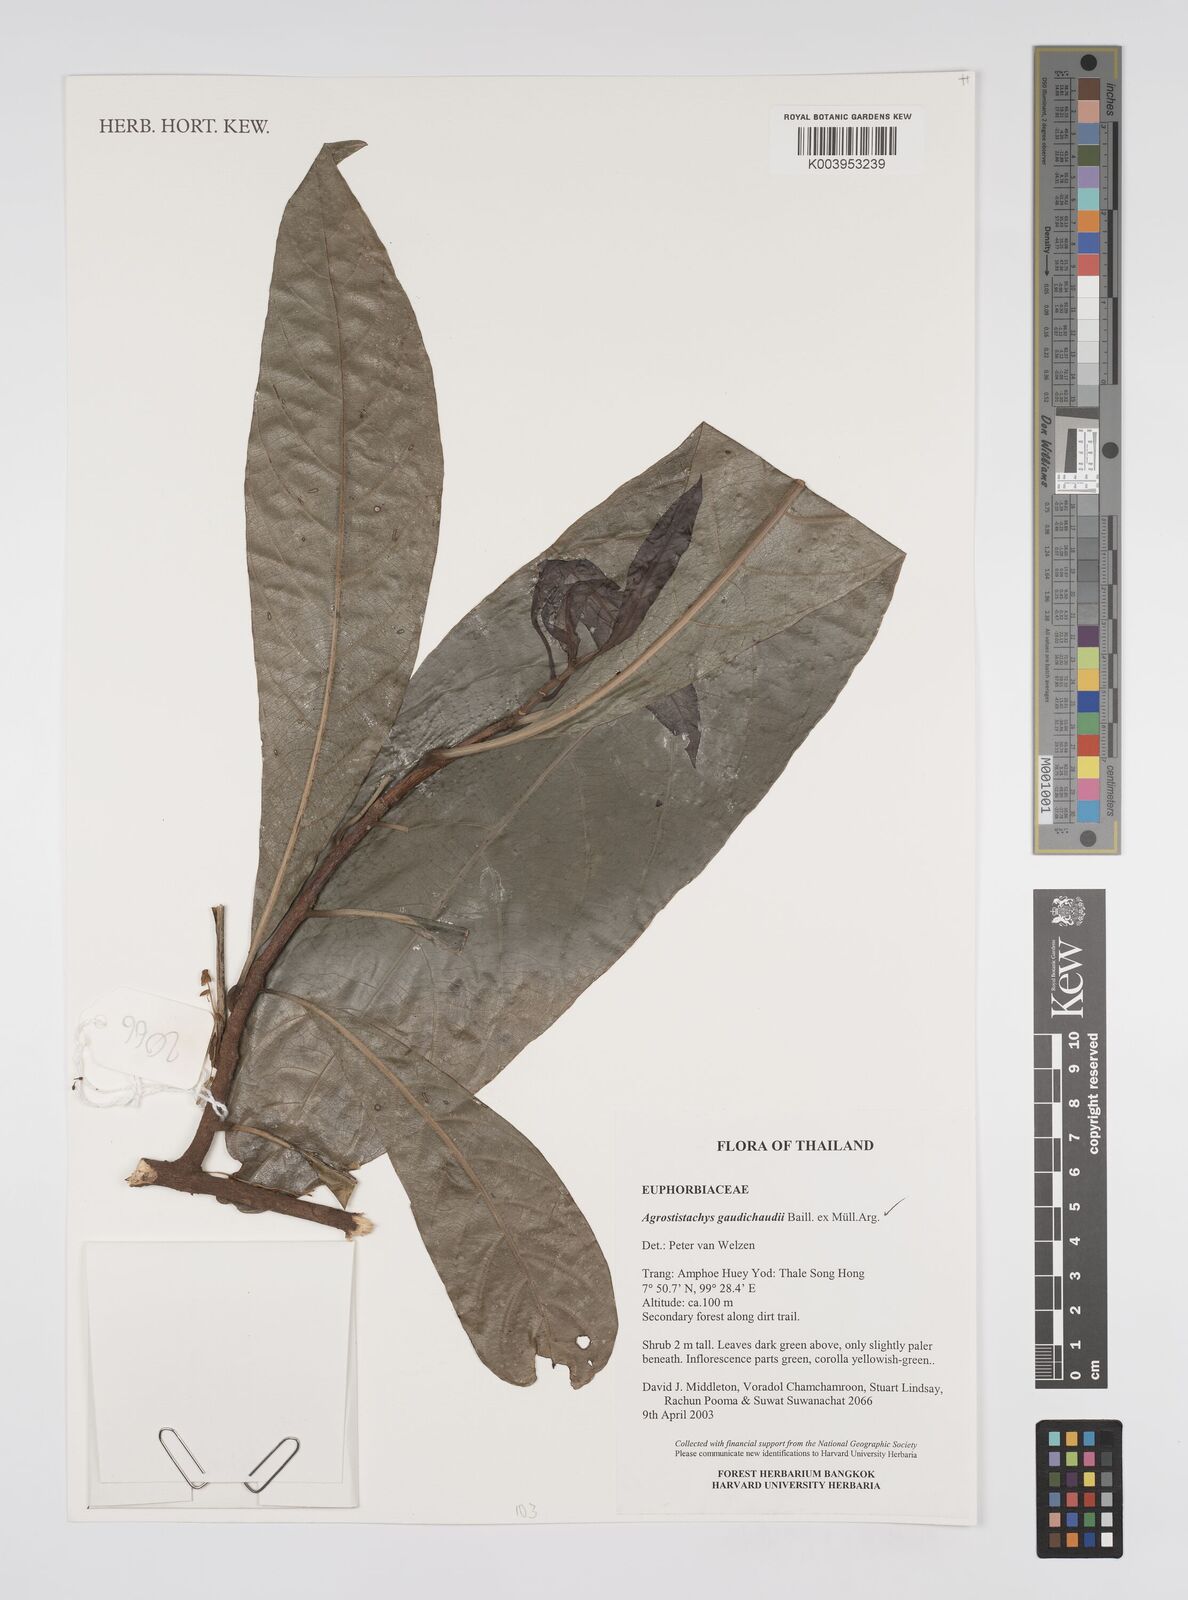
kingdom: Plantae
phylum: Tracheophyta
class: Magnoliopsida
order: Malpighiales
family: Euphorbiaceae
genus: Agrostistachys
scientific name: Agrostistachys gaudichaudii
